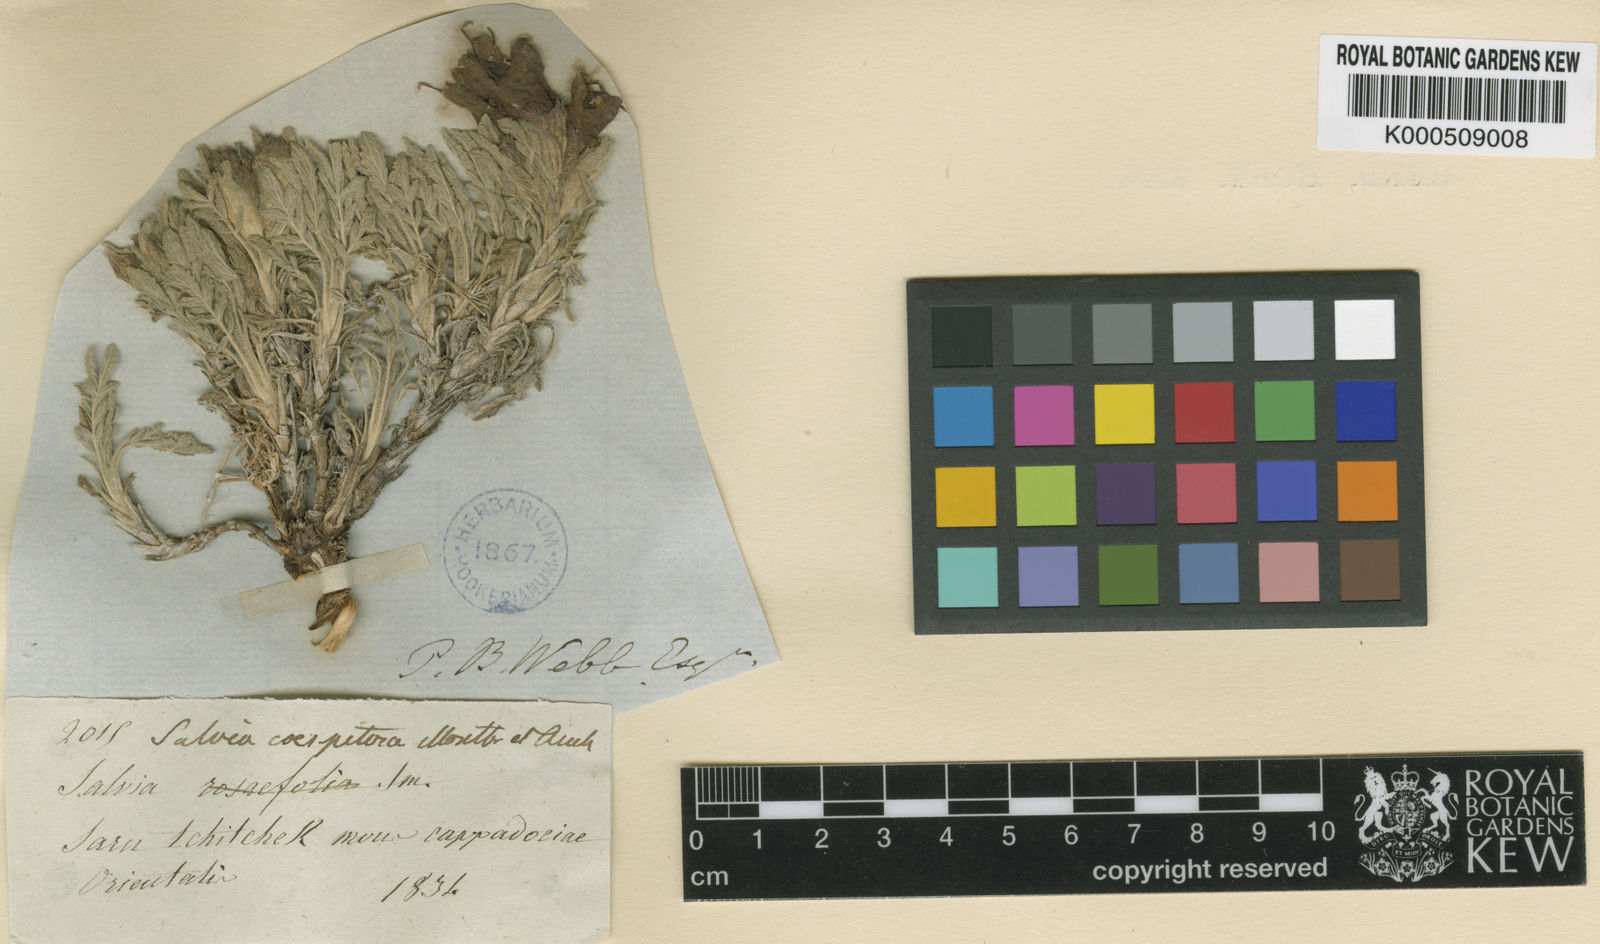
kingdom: Plantae
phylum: Tracheophyta
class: Magnoliopsida
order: Lamiales
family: Lamiaceae
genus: Salvia
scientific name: Salvia
